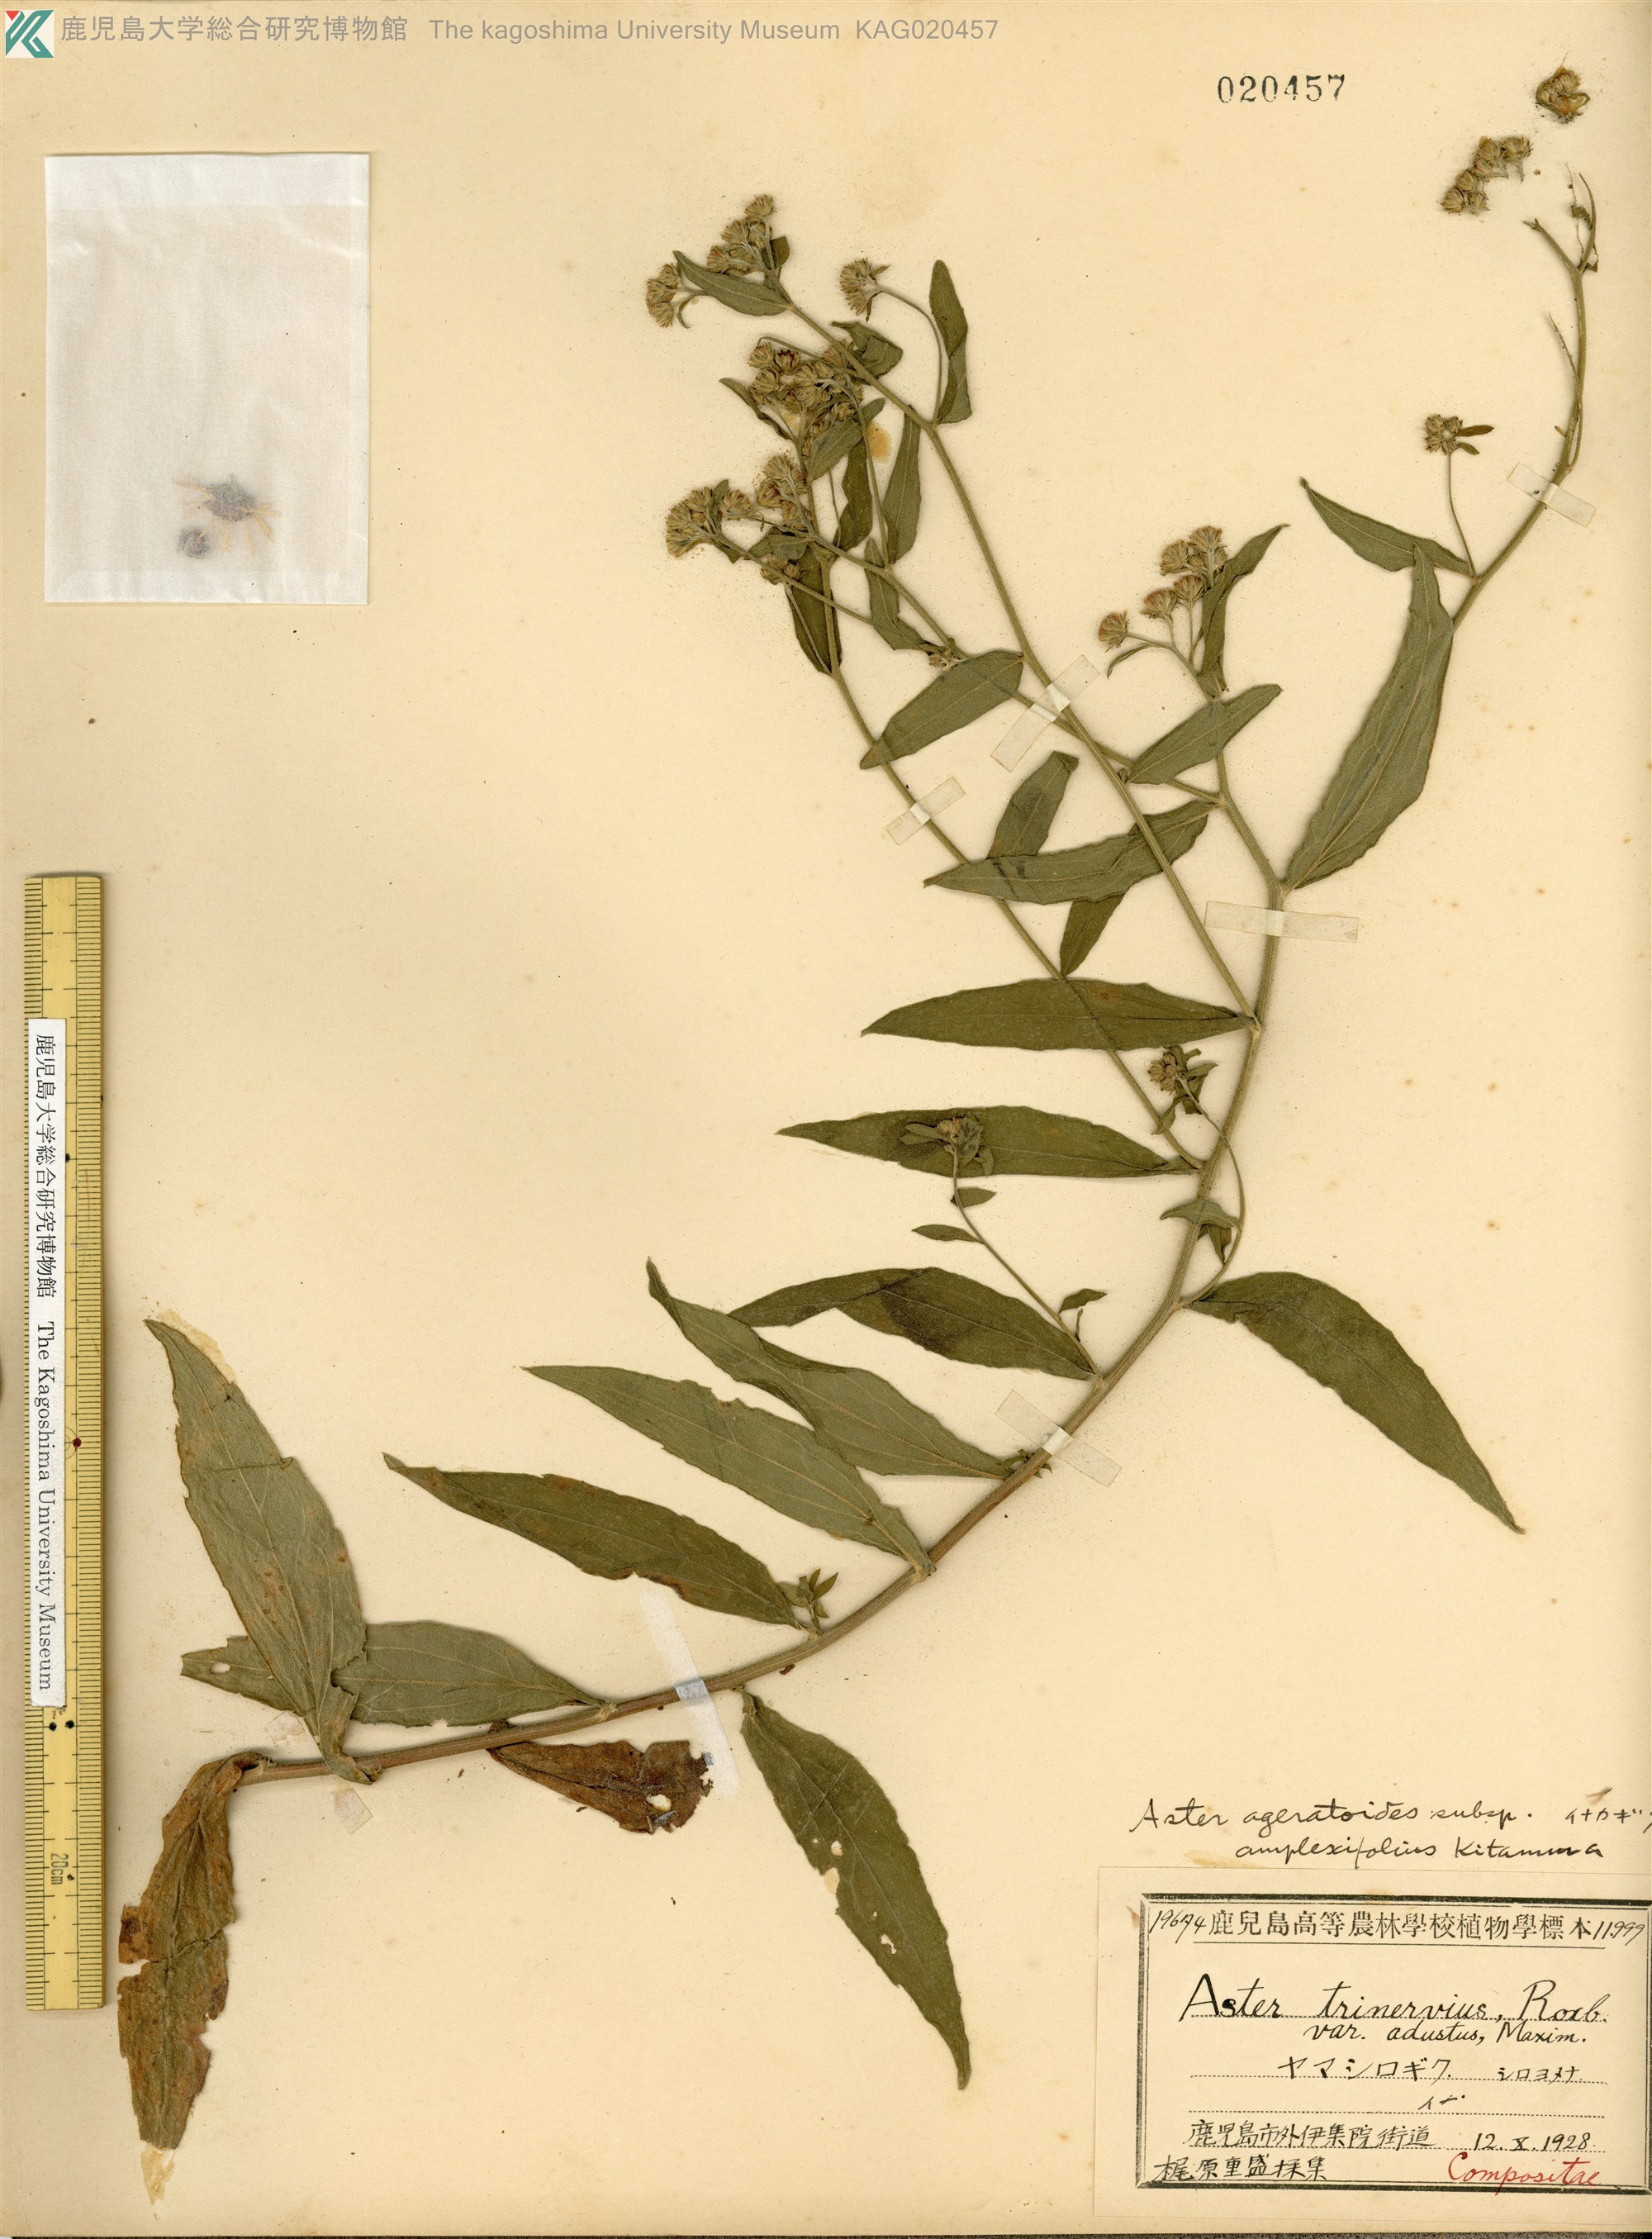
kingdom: Plantae
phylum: Tracheophyta
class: Magnoliopsida
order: Asterales
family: Asteraceae
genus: Aster
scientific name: Aster satsumensis
